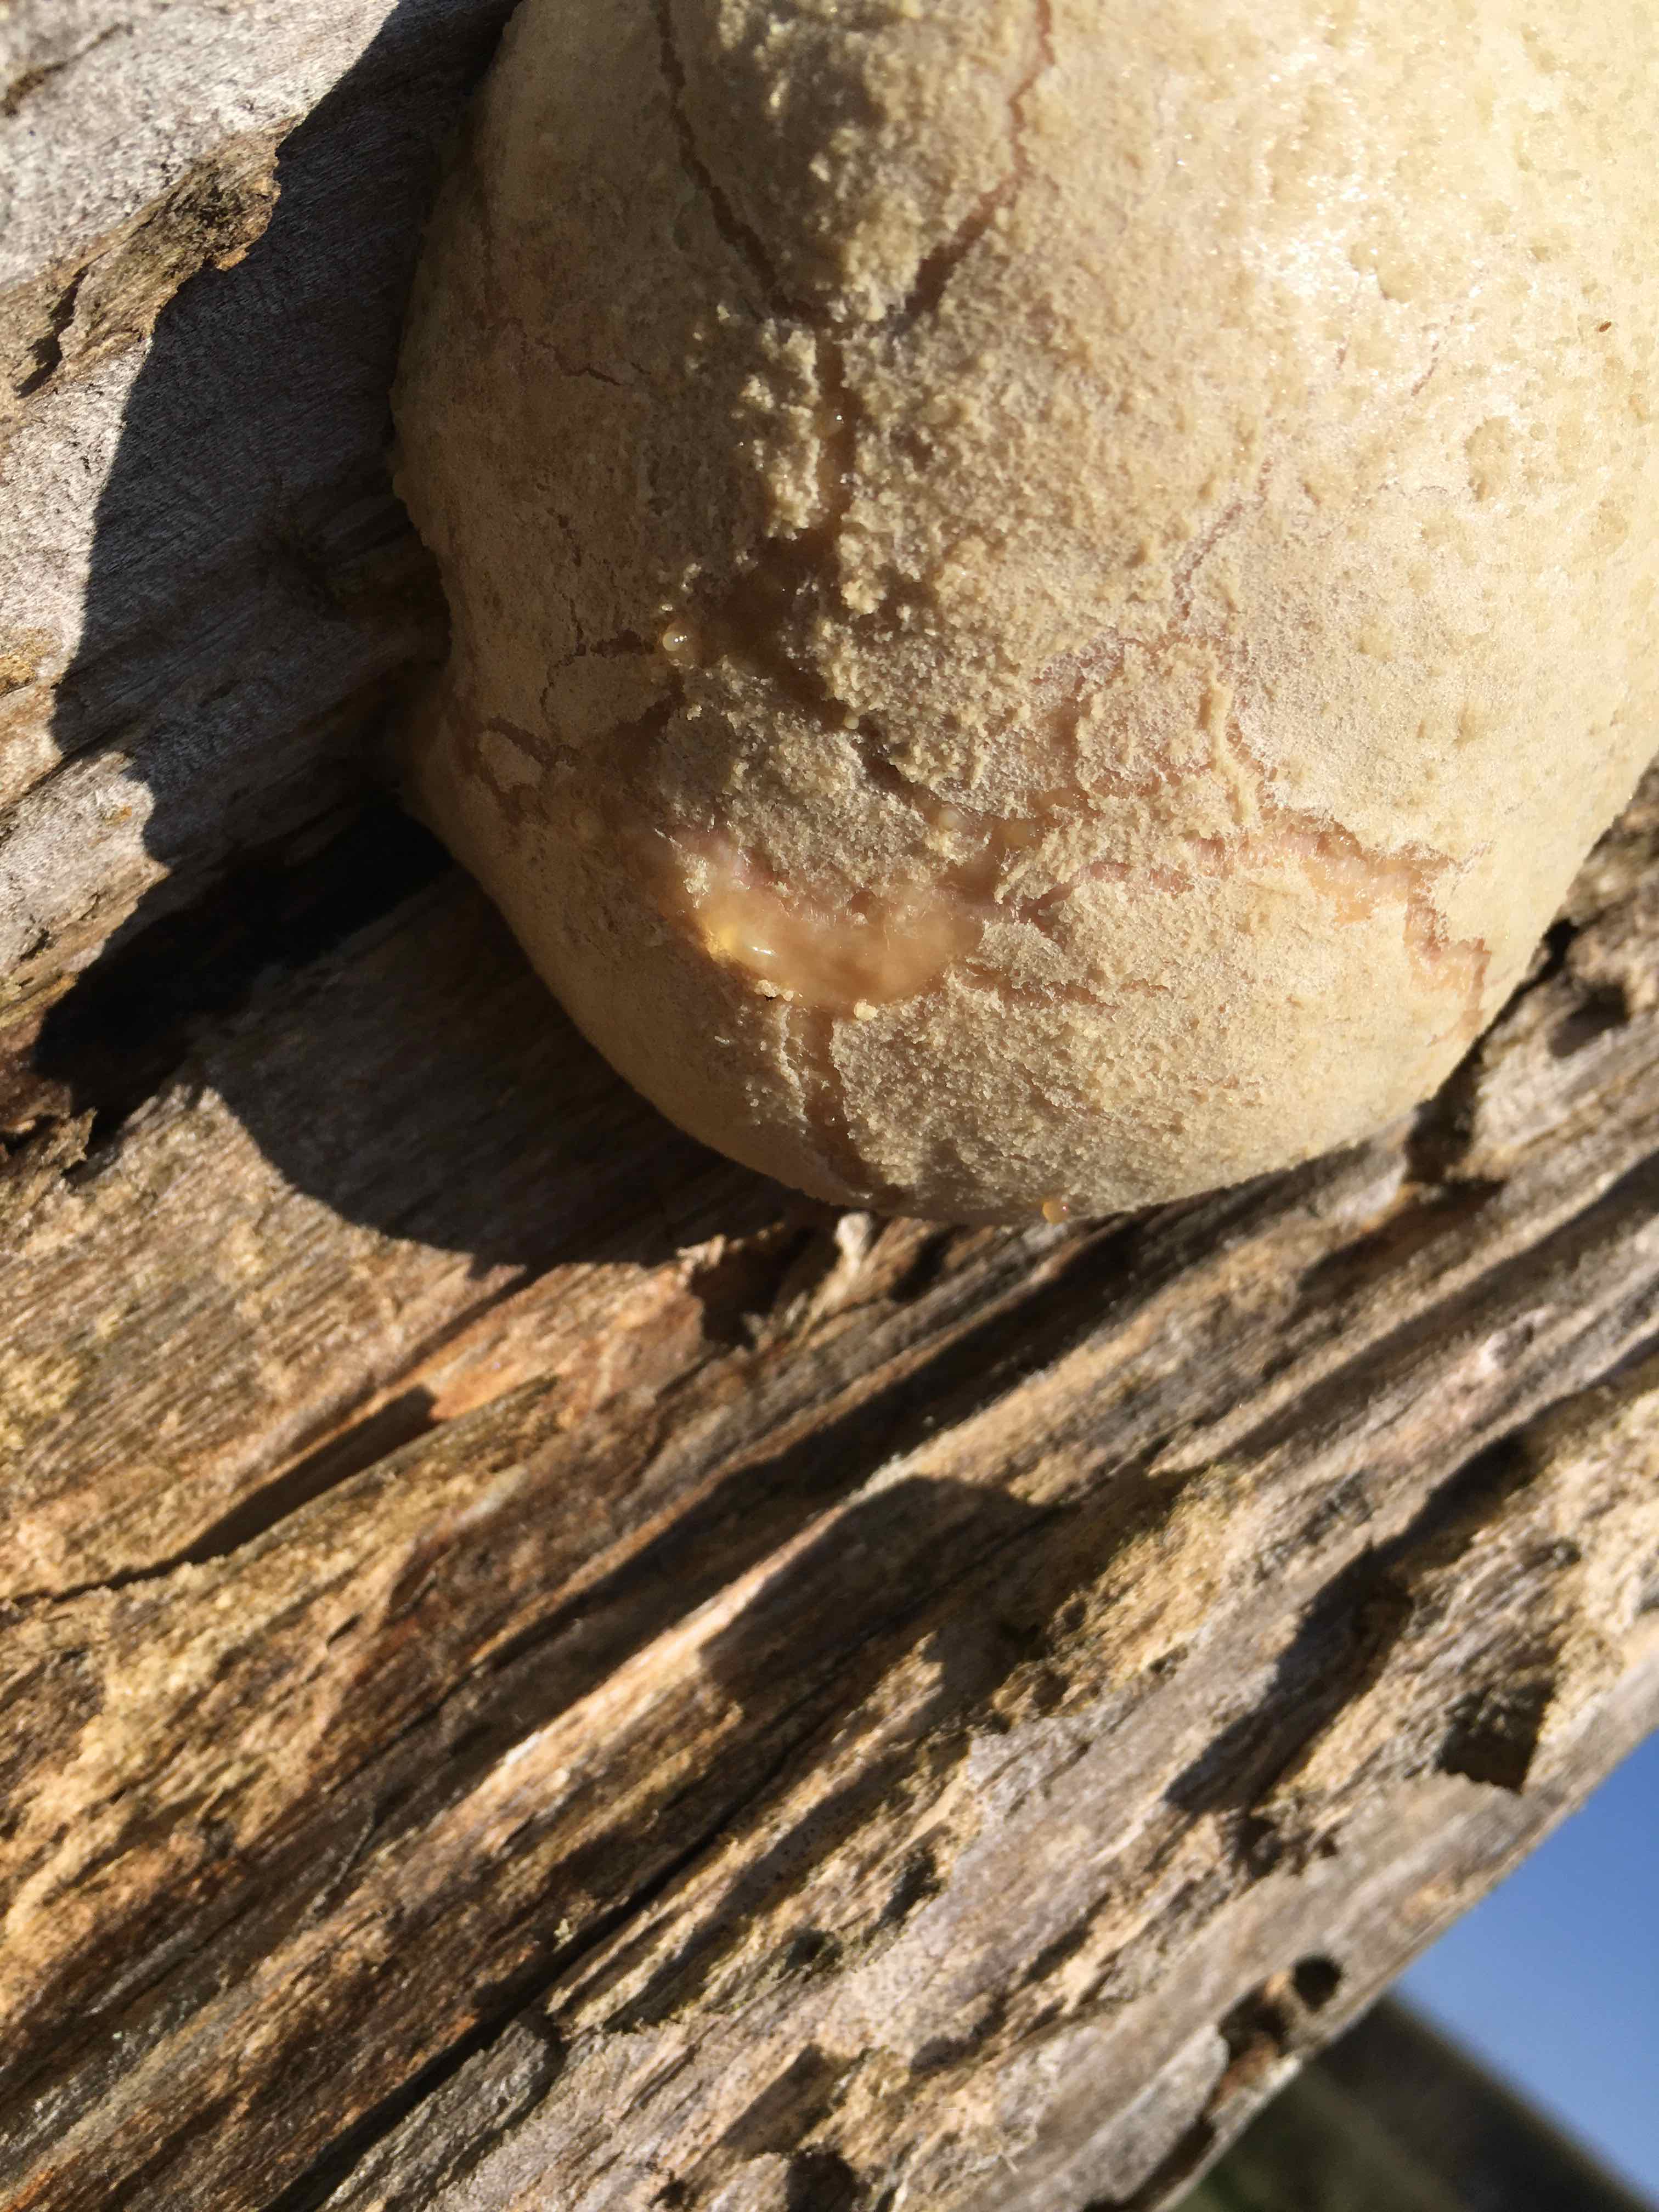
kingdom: Protozoa
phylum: Mycetozoa
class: Myxomycetes
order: Cribrariales
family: Tubiferaceae
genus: Reticularia
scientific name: Reticularia lycoperdon
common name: skinnende støvpude
